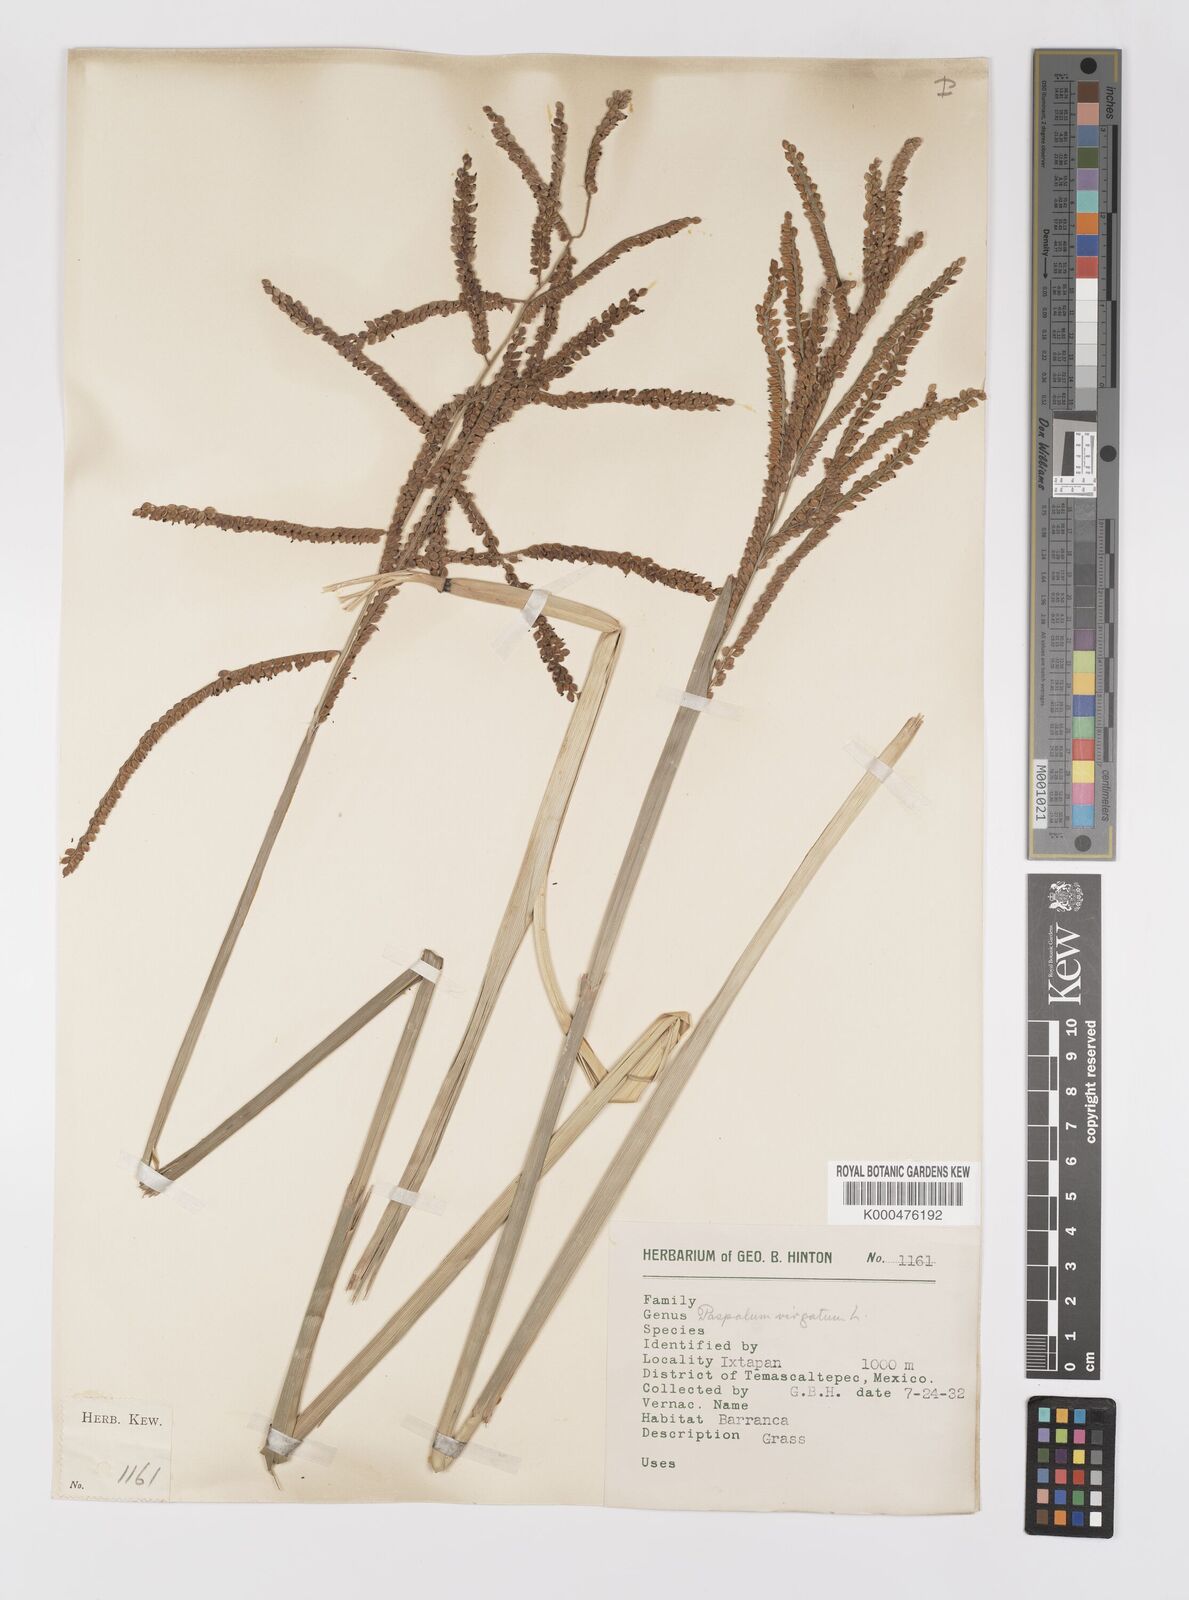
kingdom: Plantae
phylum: Tracheophyta
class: Liliopsida
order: Poales
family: Poaceae
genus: Paspalum
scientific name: Paspalum virgatum
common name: Talquezal
